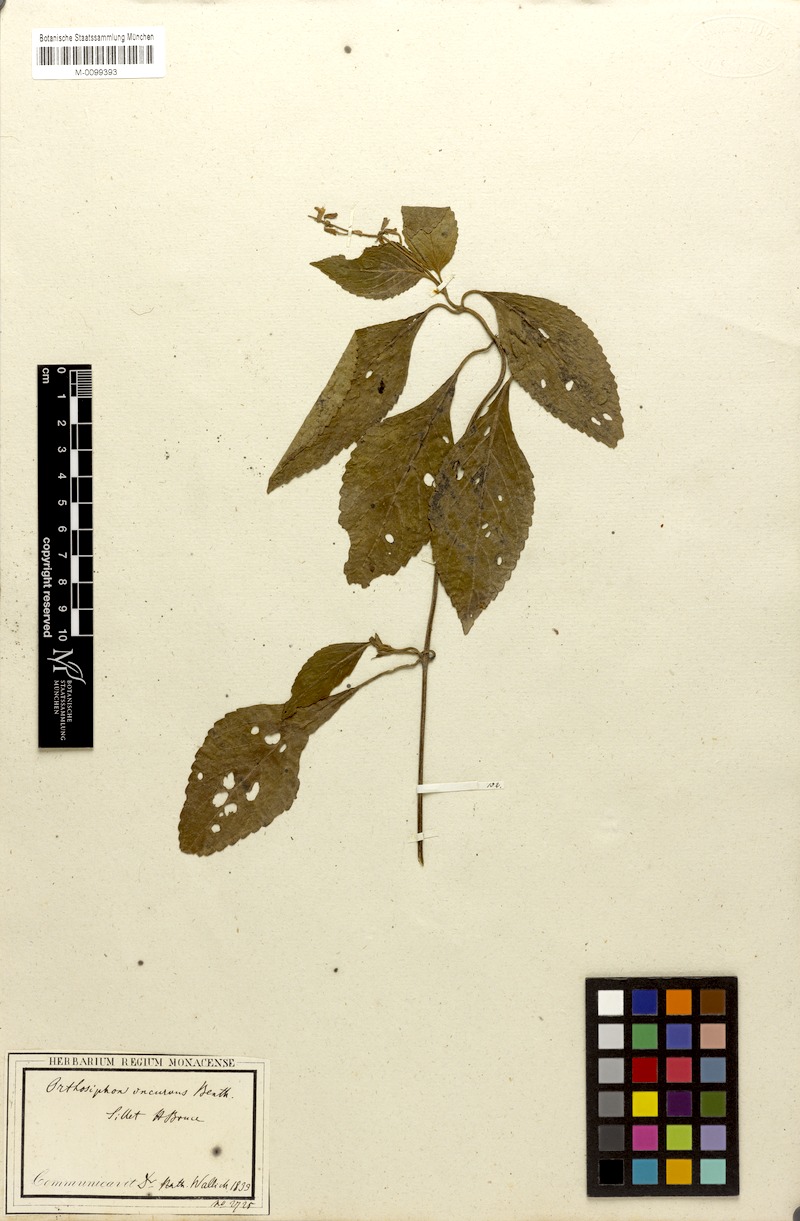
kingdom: Plantae
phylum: Tracheophyta
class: Magnoliopsida
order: Lamiales
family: Lamiaceae
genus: Orthosiphon
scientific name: Orthosiphon incurvus
